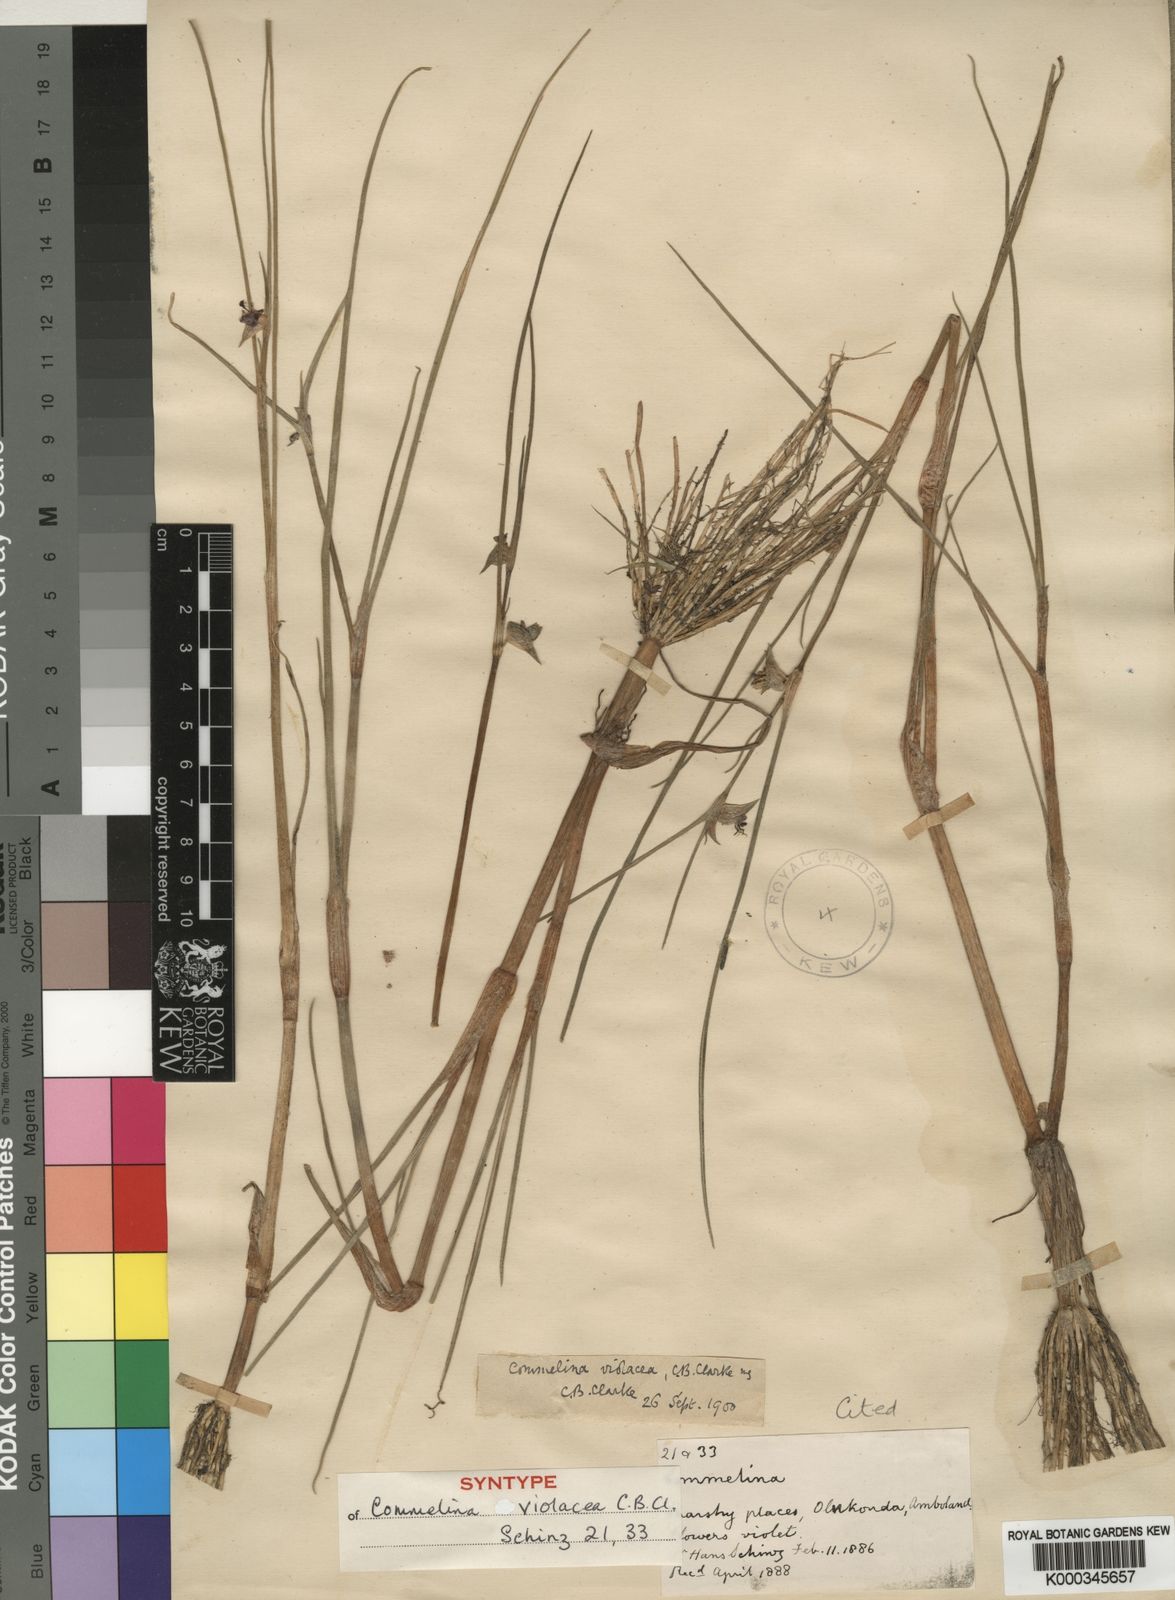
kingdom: Plantae
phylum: Tracheophyta
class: Liliopsida
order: Commelinales
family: Commelinaceae
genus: Commelina
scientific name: Commelina subulata
